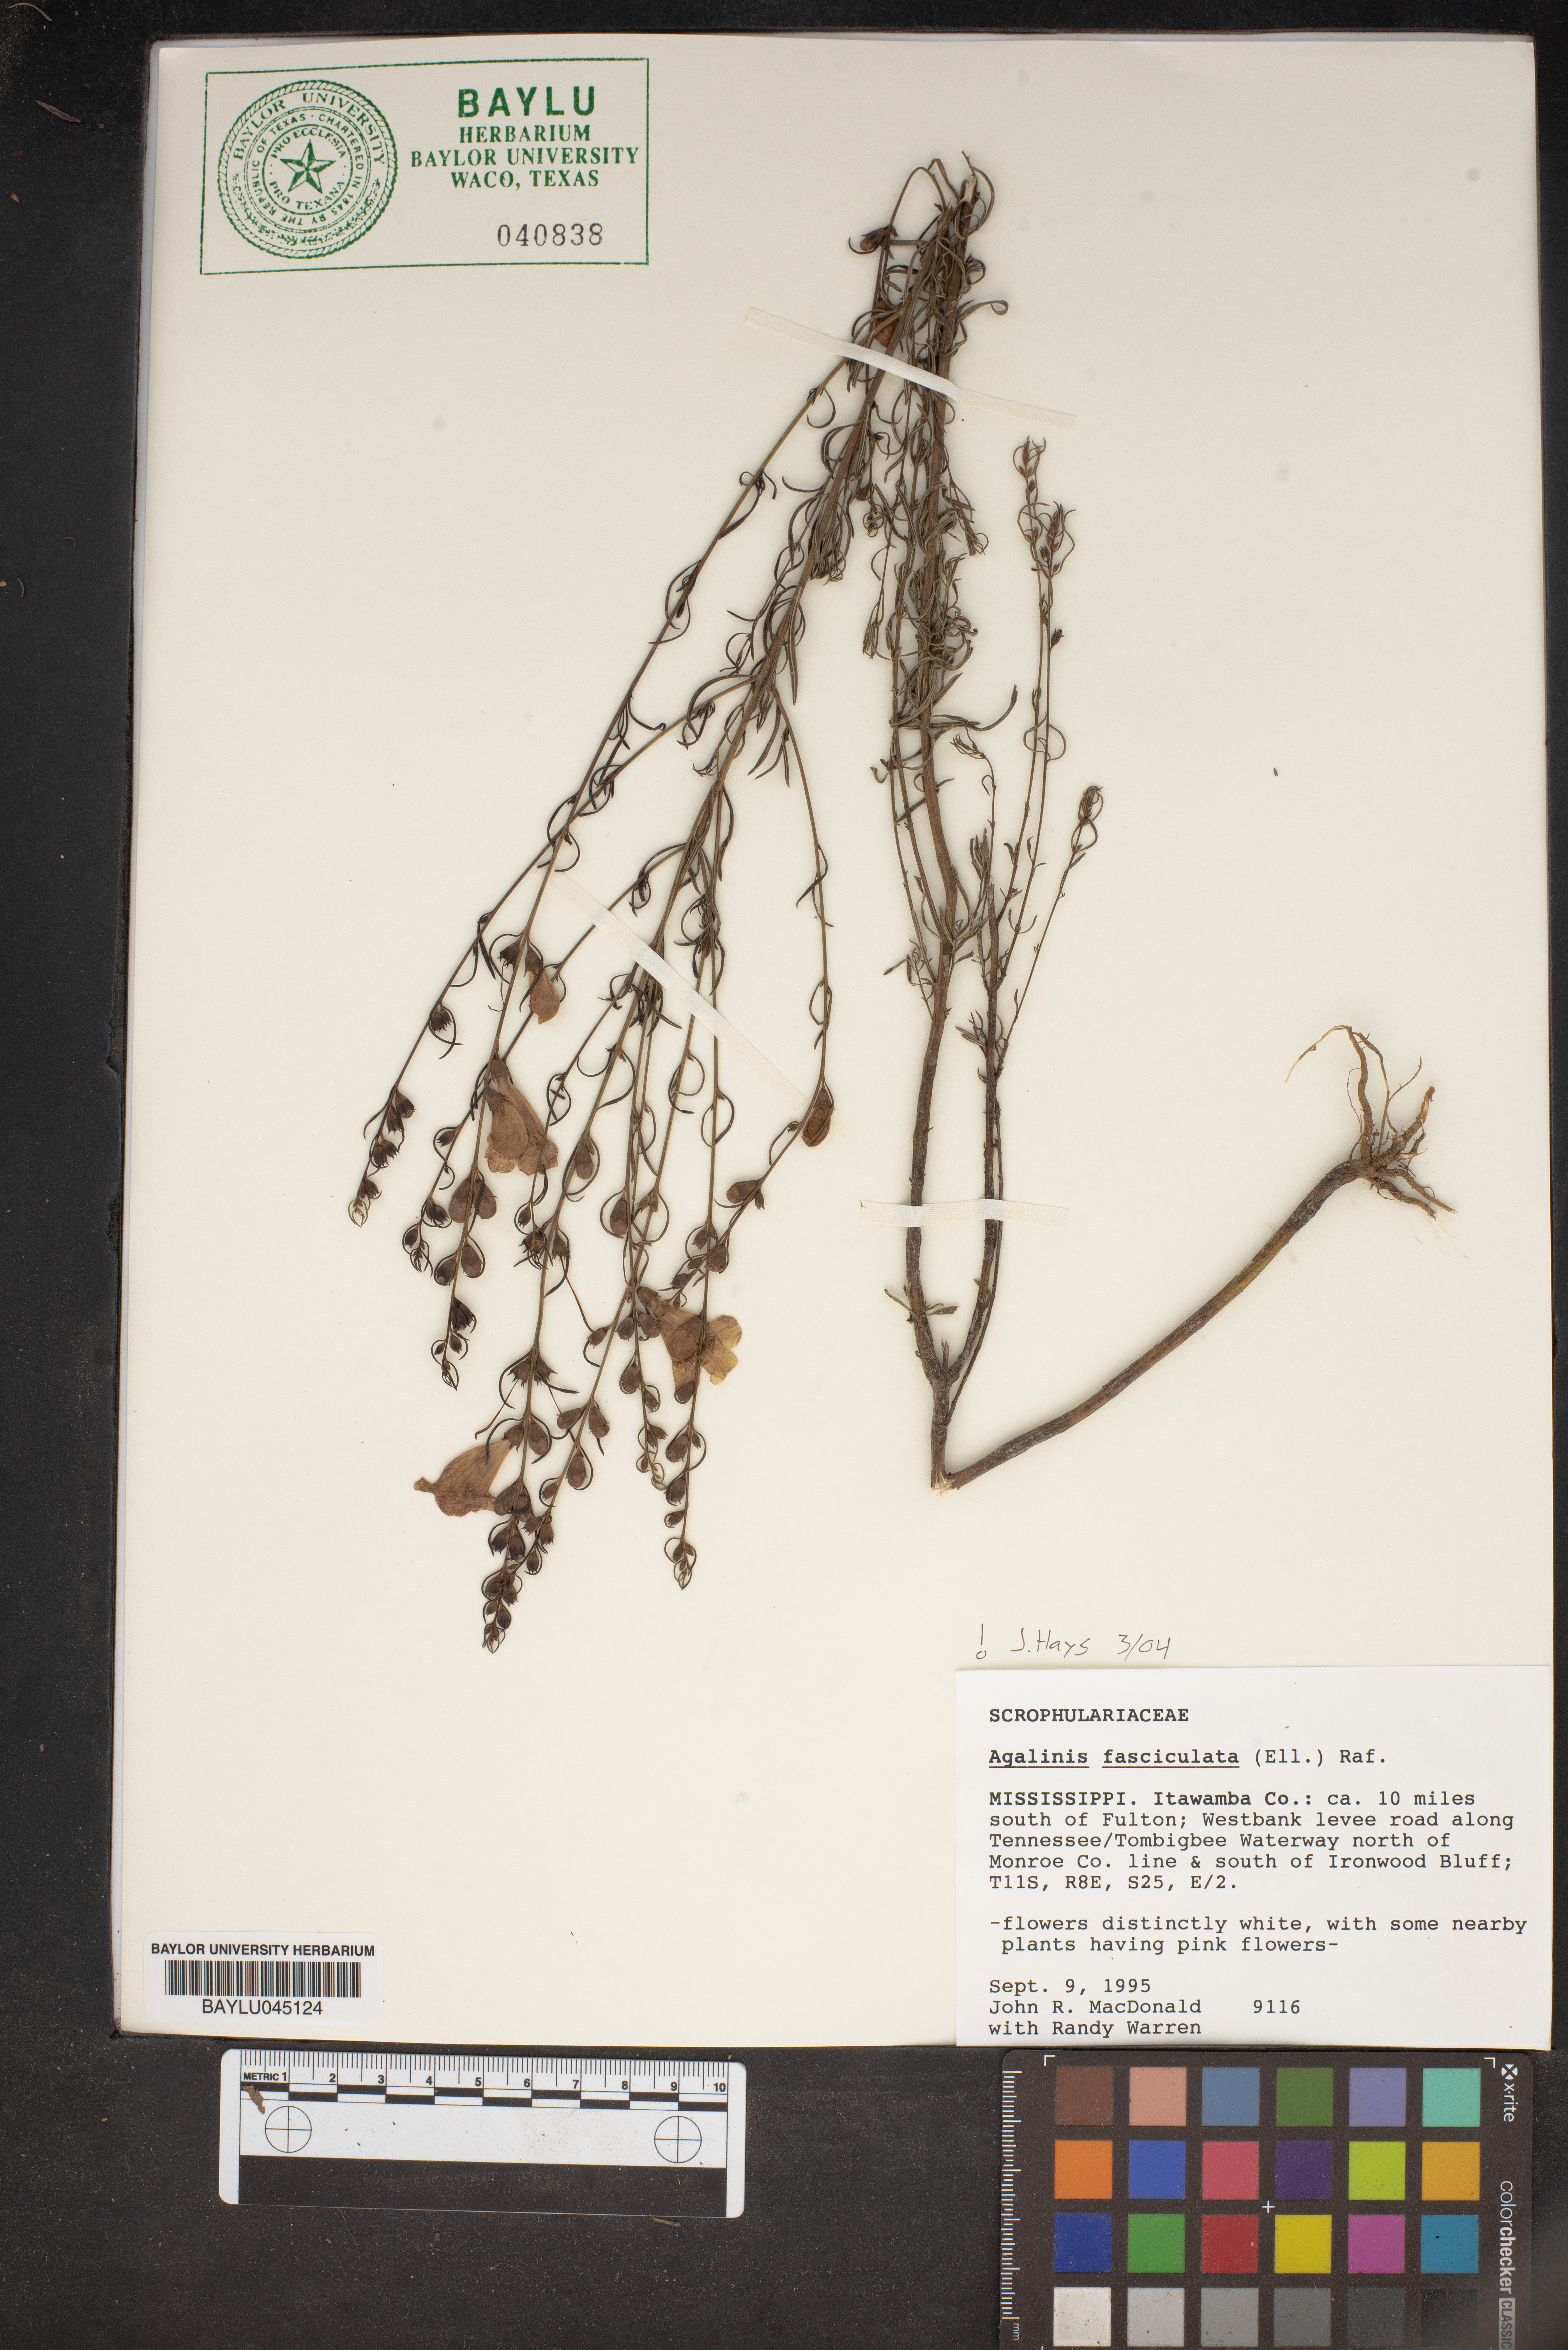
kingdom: Plantae
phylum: Tracheophyta
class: Magnoliopsida
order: Lamiales
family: Orobanchaceae
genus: Agalinis
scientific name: Agalinis fasciculata
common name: Beach false foxglove
